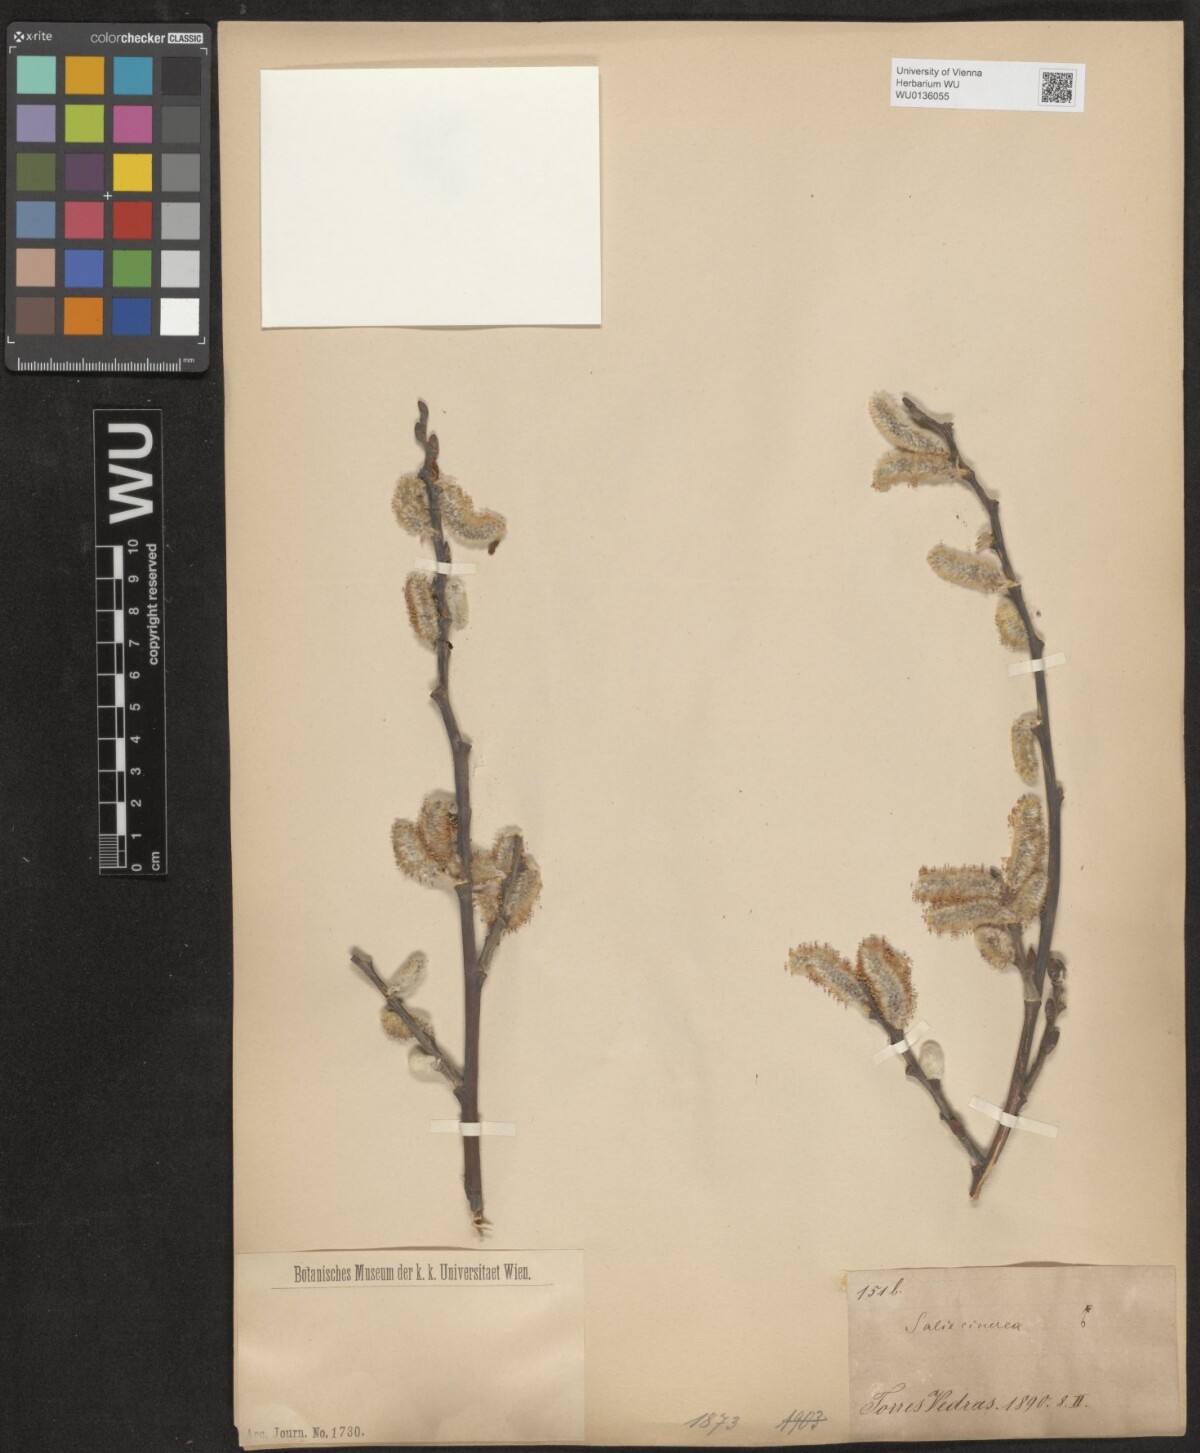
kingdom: Plantae
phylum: Tracheophyta
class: Magnoliopsida
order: Malpighiales
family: Salicaceae
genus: Salix
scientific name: Salix cinerea
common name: Common sallow
